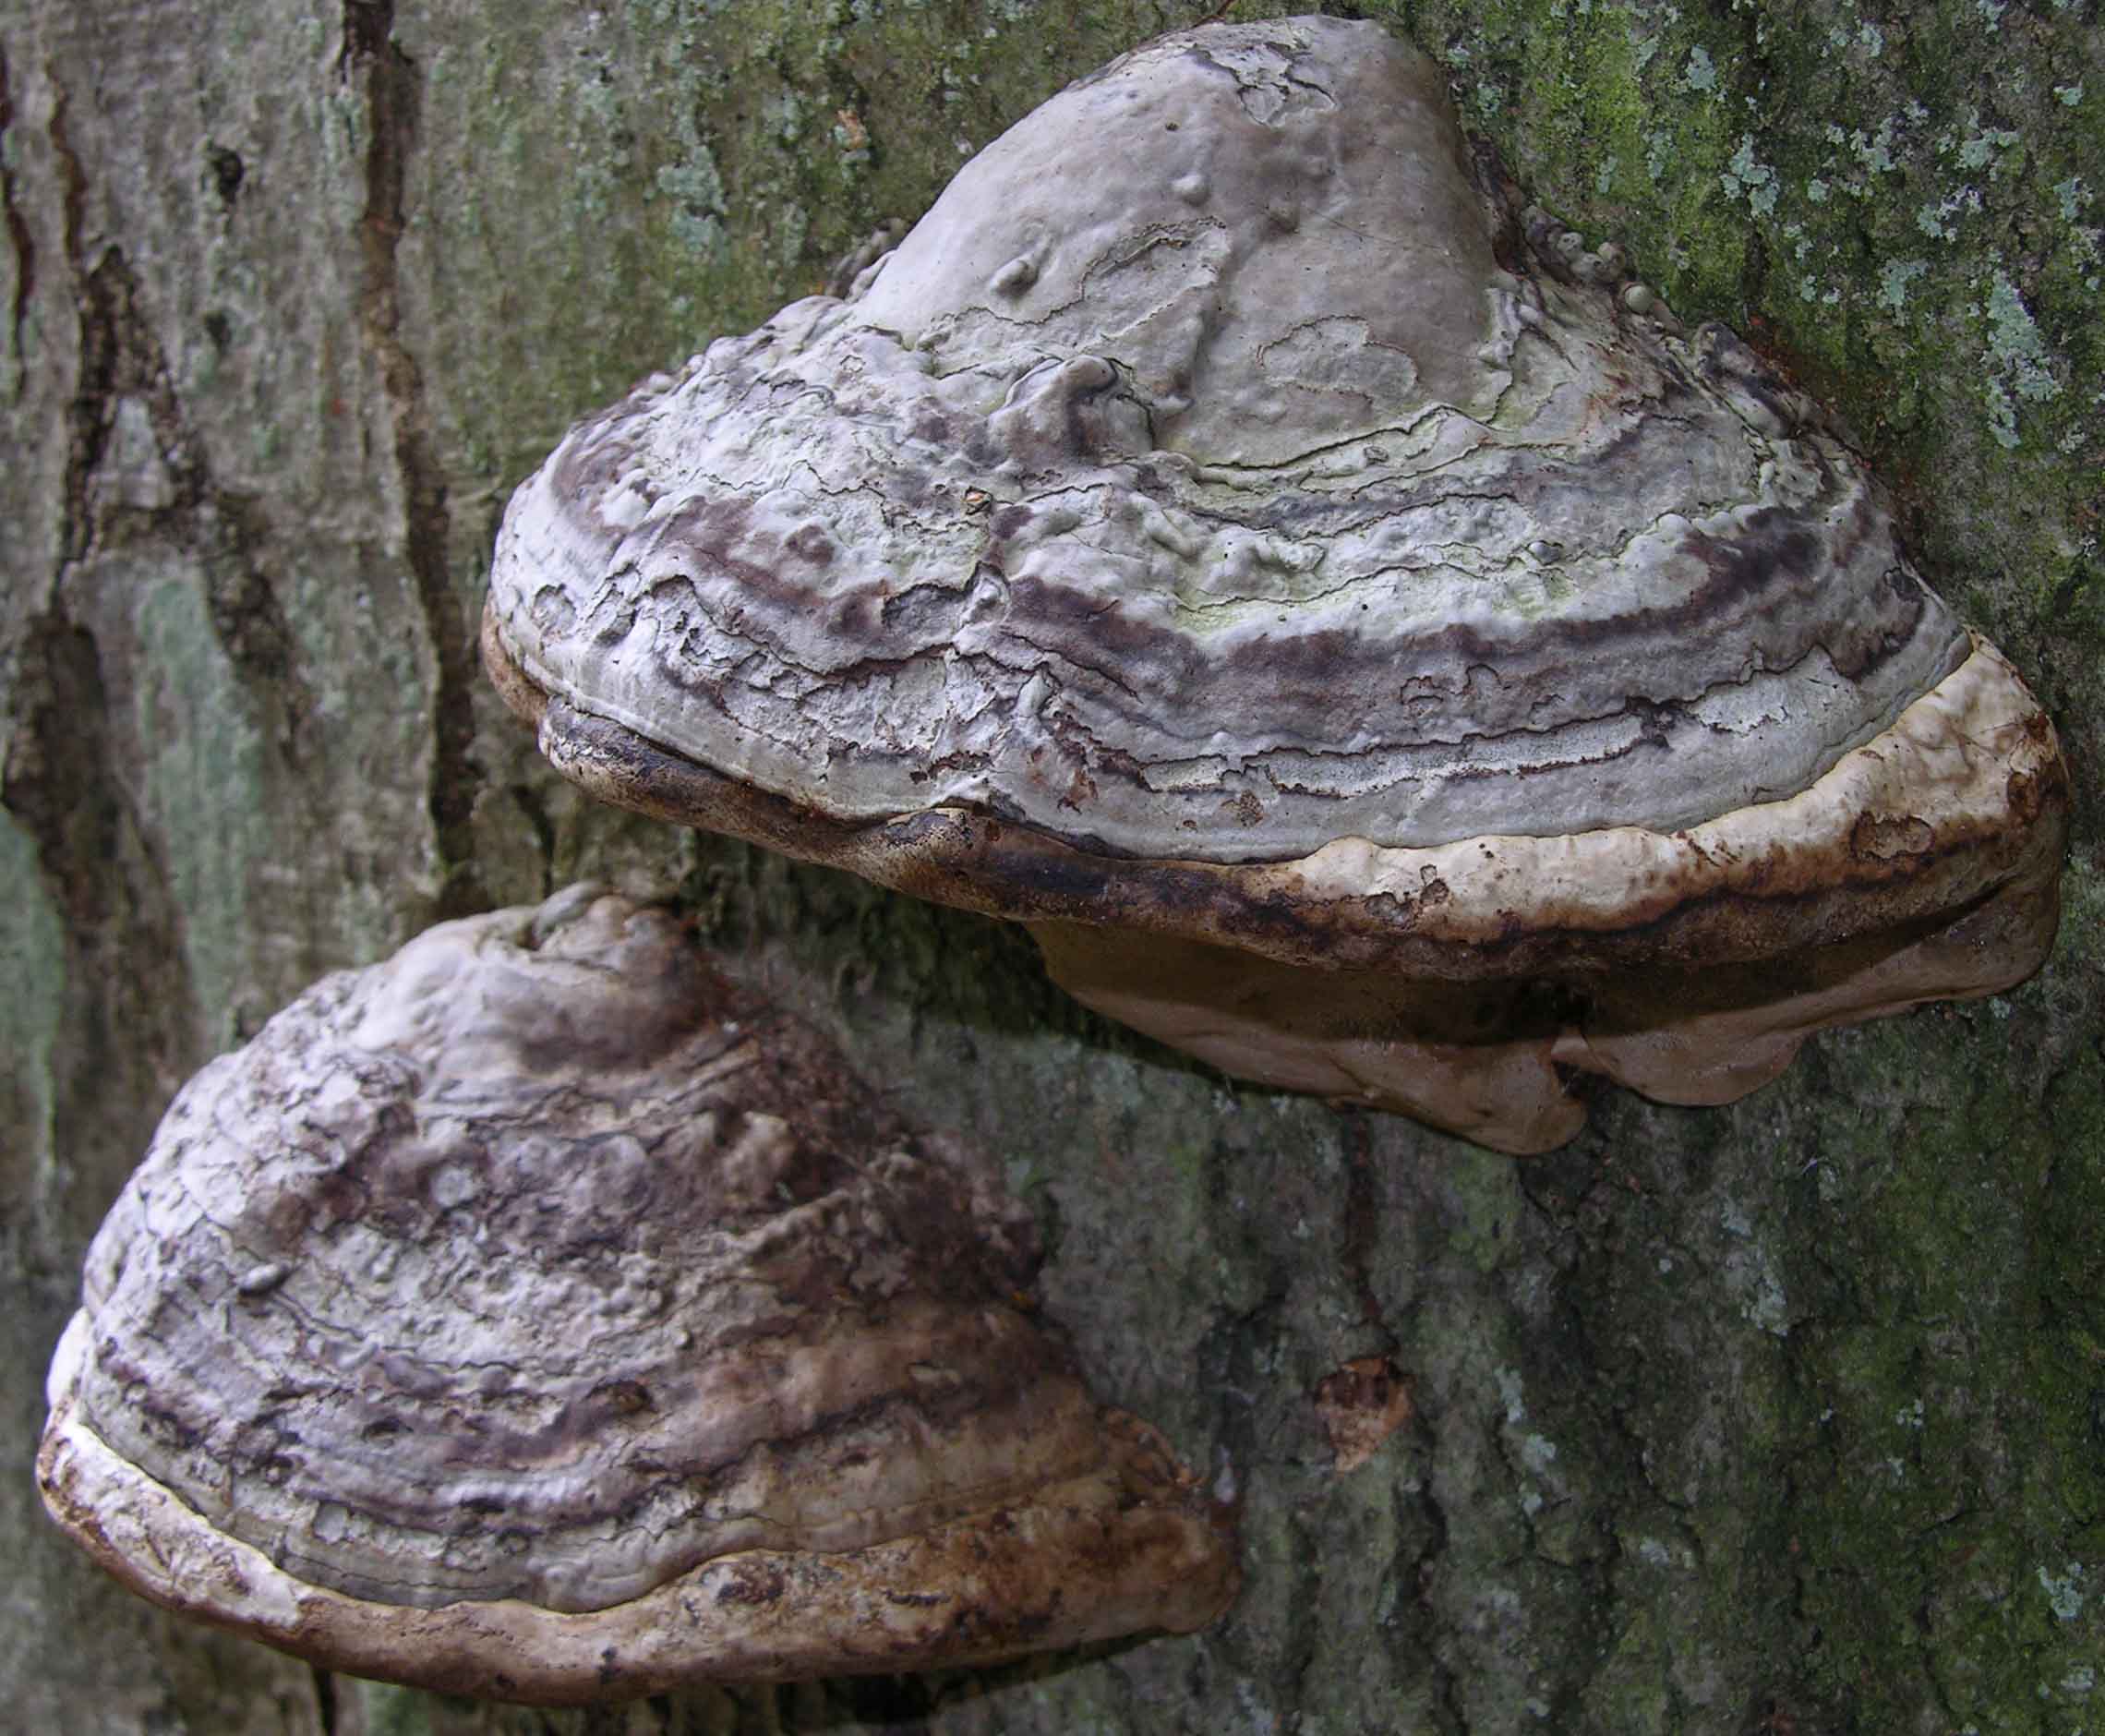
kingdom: Fungi
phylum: Basidiomycota
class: Agaricomycetes
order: Polyporales
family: Polyporaceae
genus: Fomes
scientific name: Fomes fomentarius
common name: tøndersvamp
